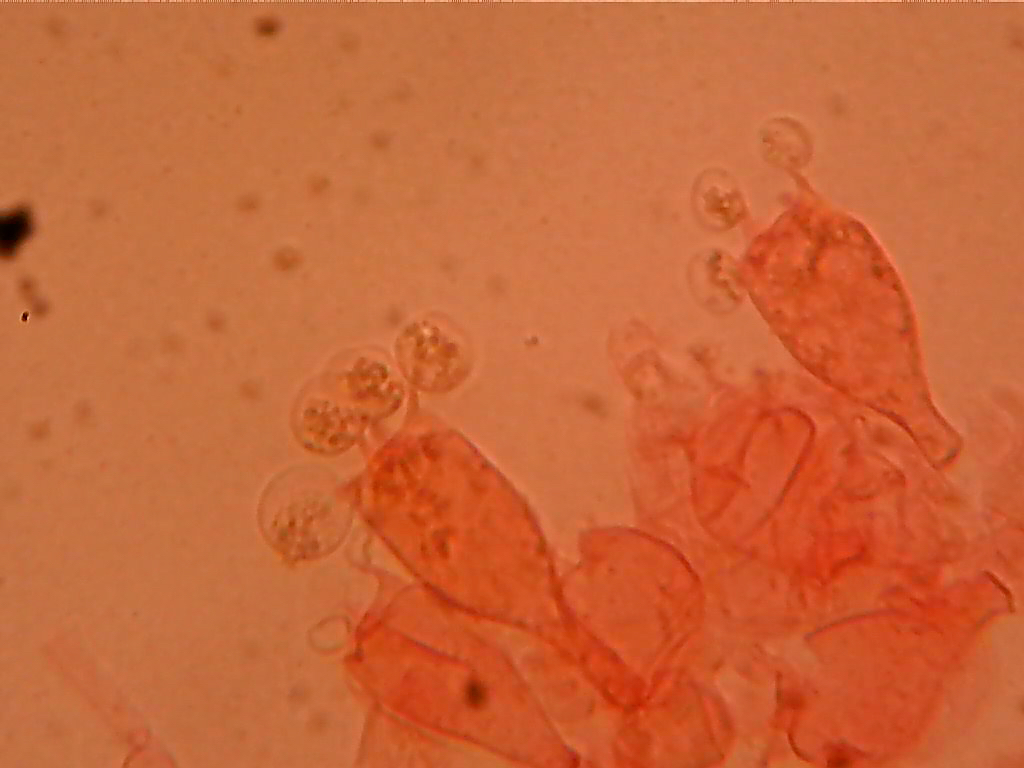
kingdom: Fungi
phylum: Basidiomycota
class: Agaricomycetes
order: Agaricales
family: Psathyrellaceae
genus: Coprinopsis
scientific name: Coprinopsis nivea
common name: snehvid blækhat
